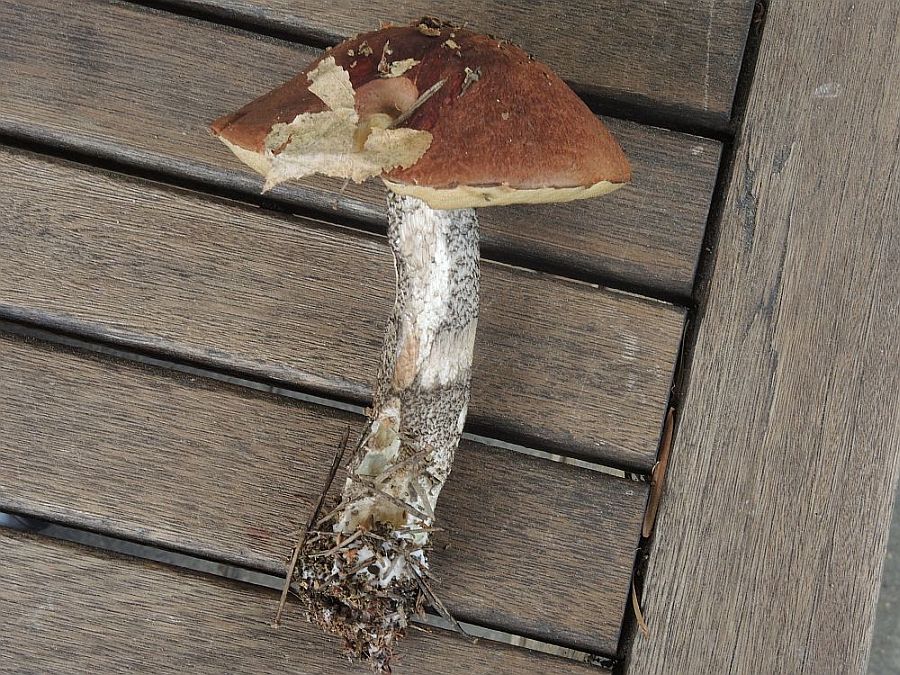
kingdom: Fungi
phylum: Basidiomycota
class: Agaricomycetes
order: Boletales
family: Boletaceae
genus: Leccinum
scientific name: Leccinum vulpinum
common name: fyrre-skælrørhat
